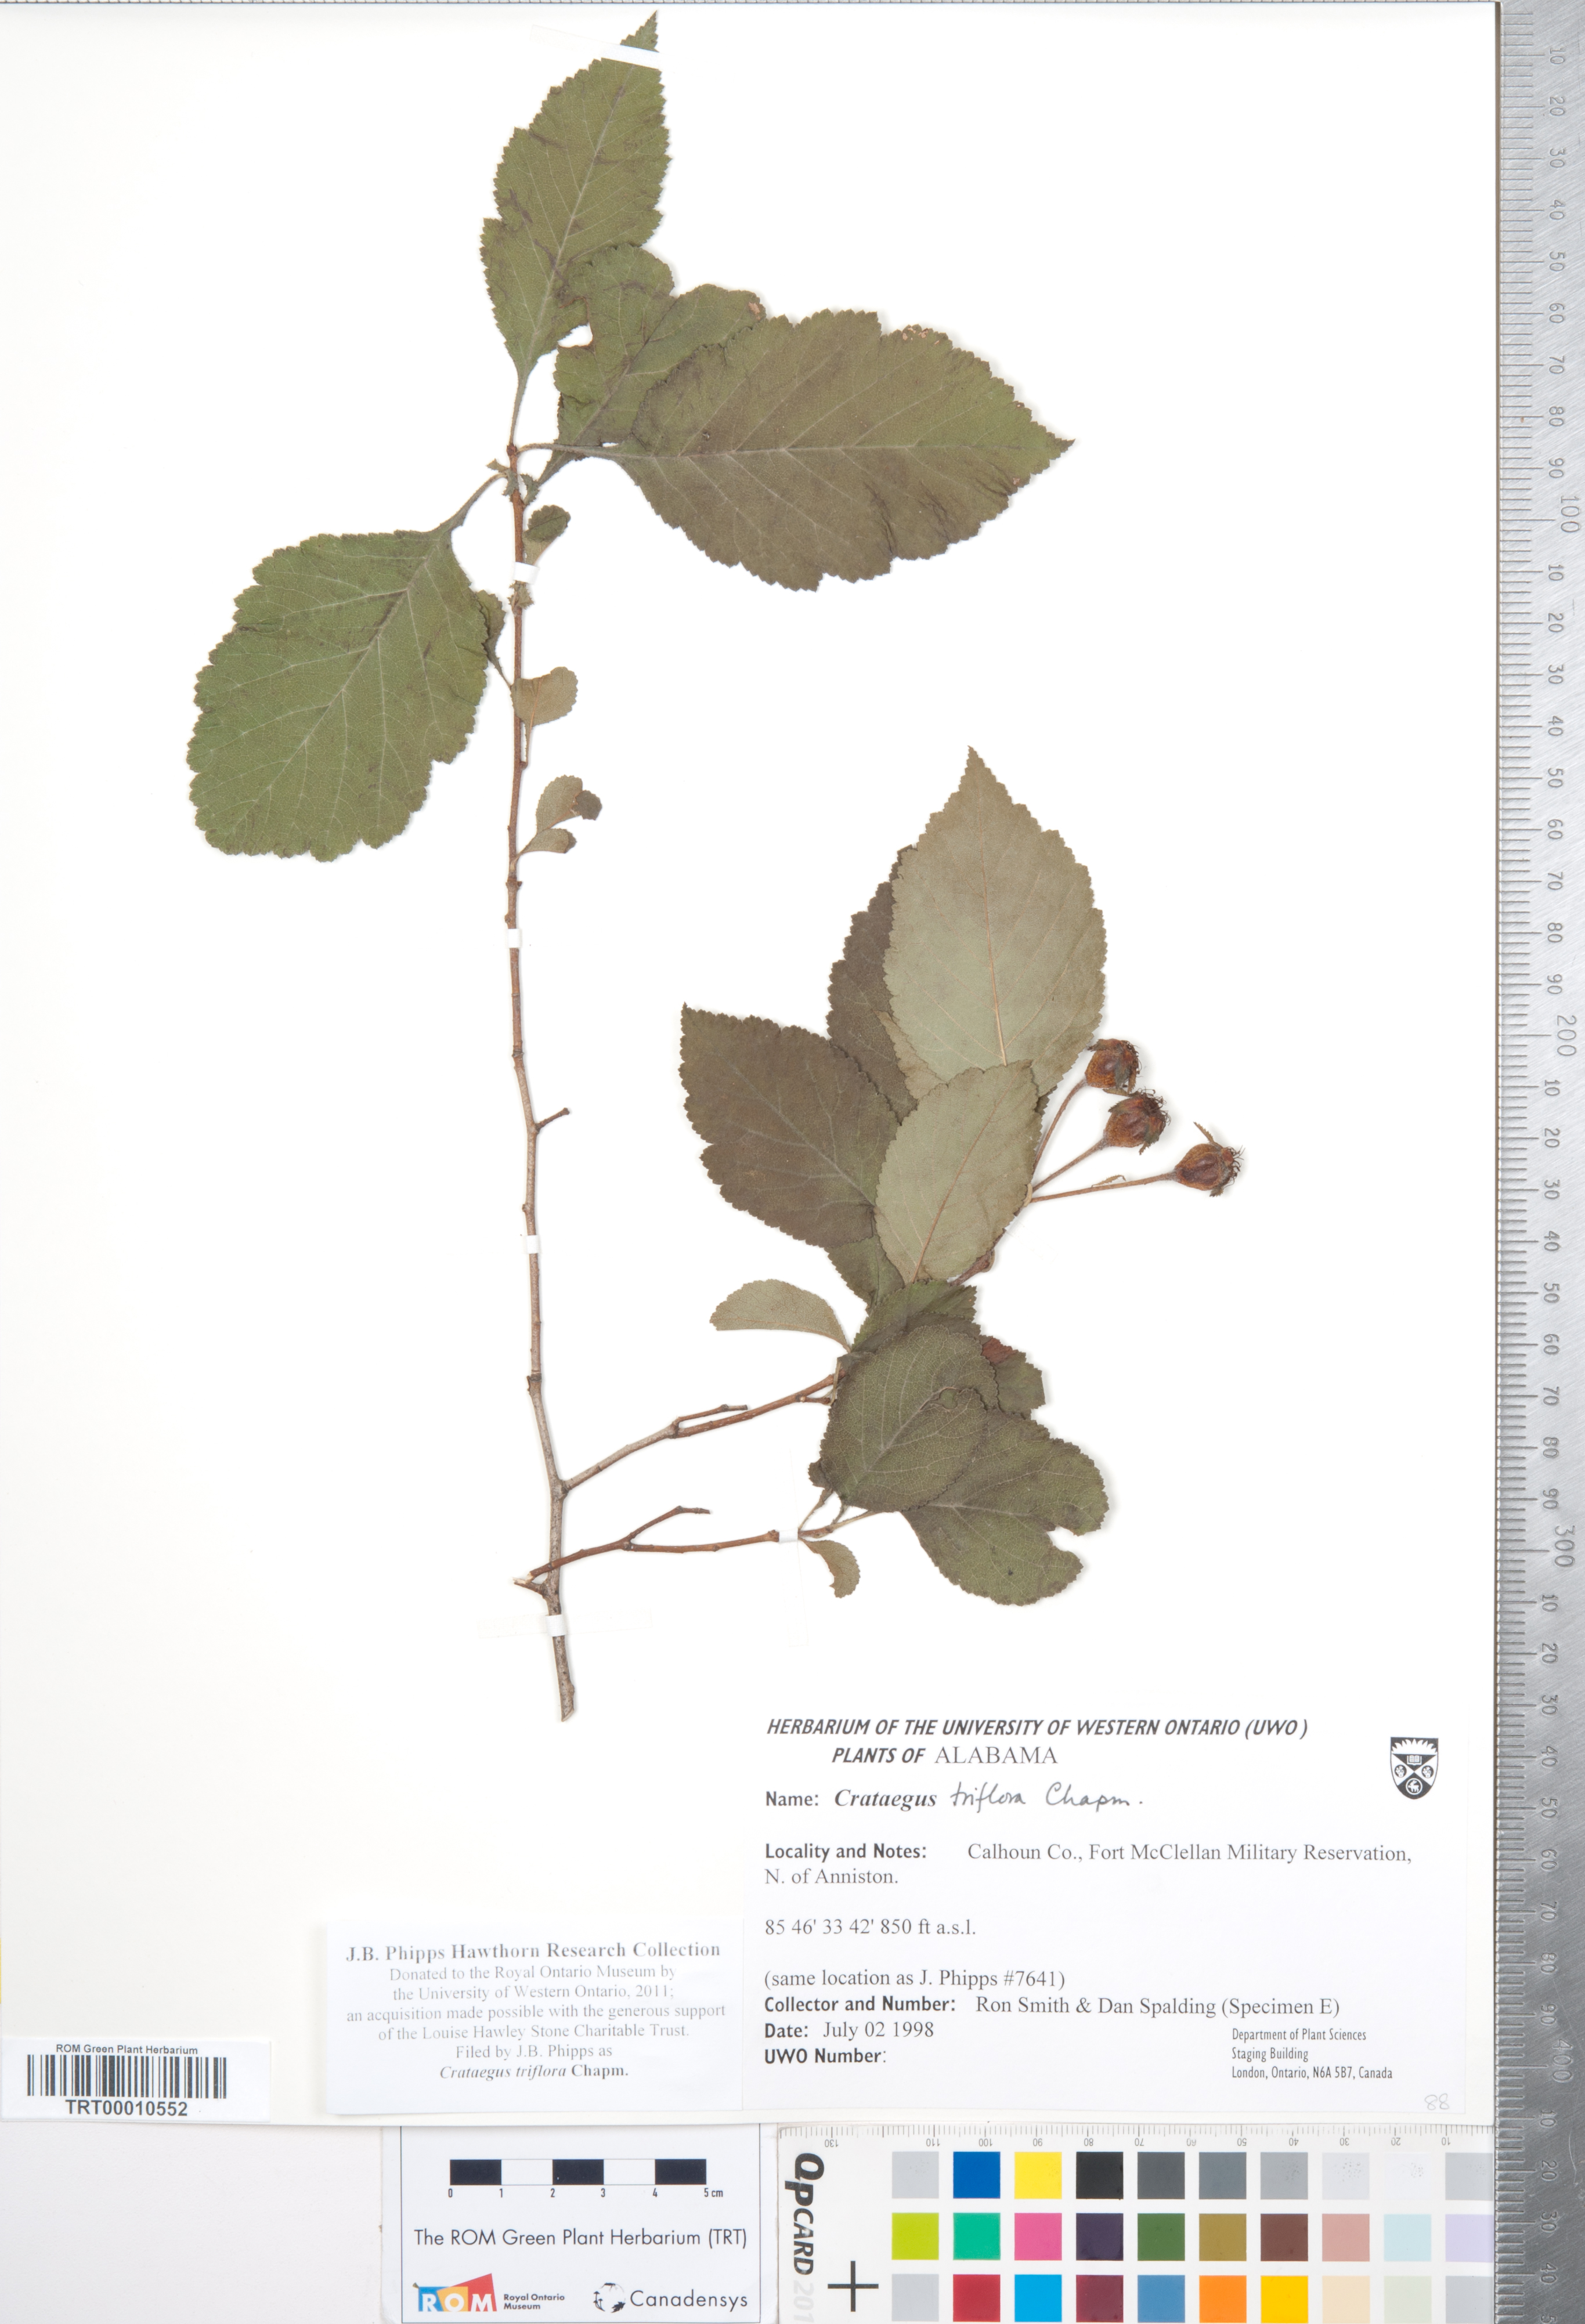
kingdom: Plantae
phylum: Tracheophyta
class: Magnoliopsida
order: Rosales
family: Rosaceae
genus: Crataegus
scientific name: Crataegus triflora
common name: Three-flower hawthorn
